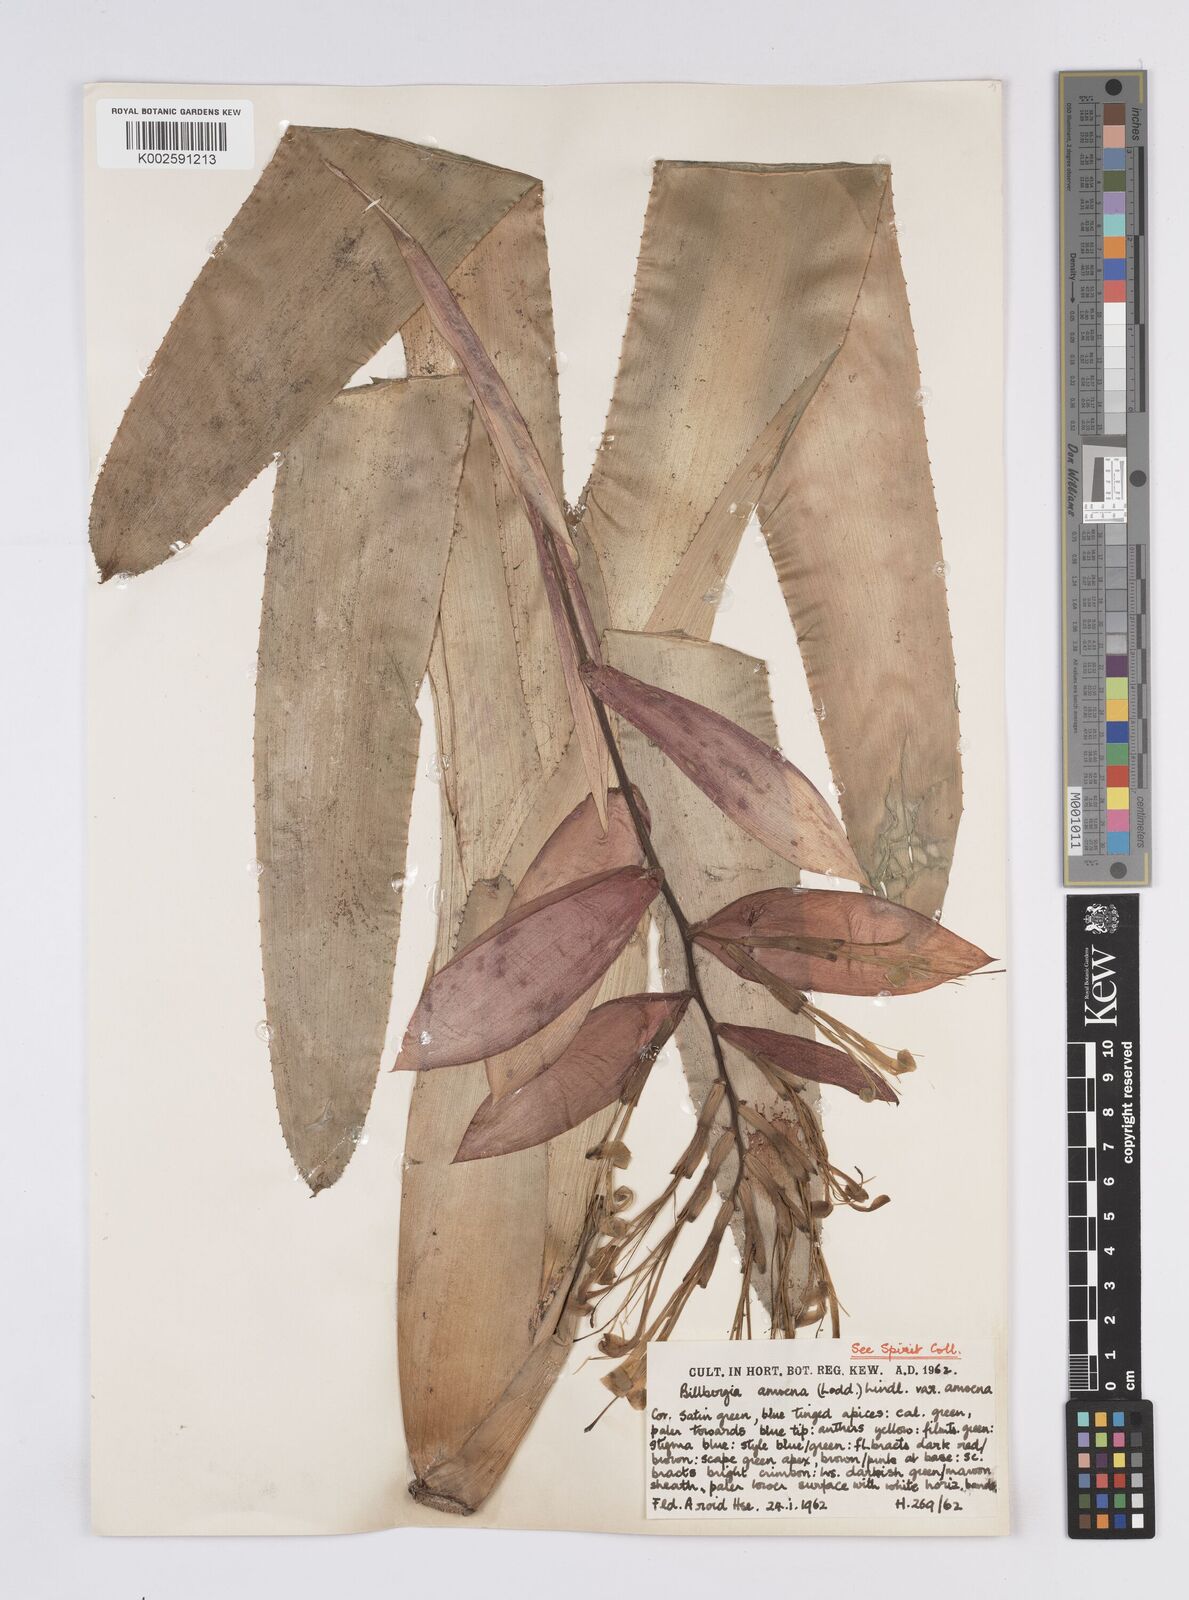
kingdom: Plantae
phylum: Tracheophyta
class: Liliopsida
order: Poales
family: Bromeliaceae
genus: Billbergia
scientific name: Billbergia amoena
